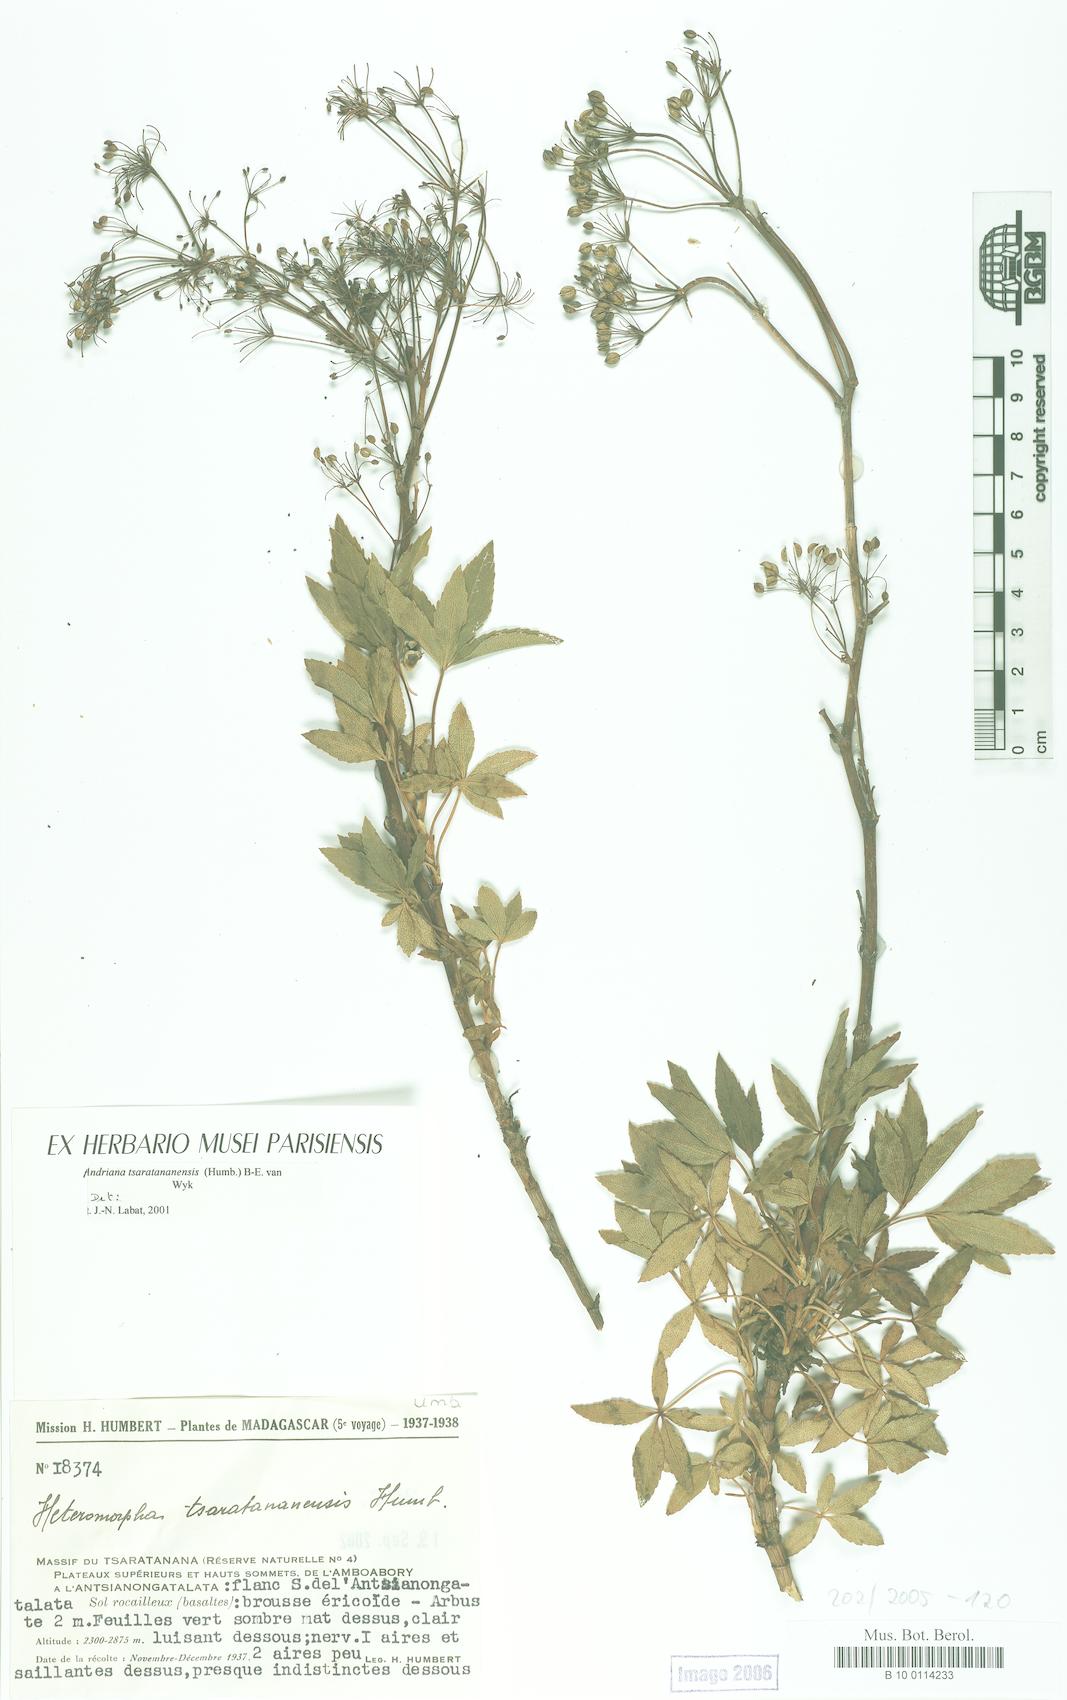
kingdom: Plantae
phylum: Tracheophyta
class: Magnoliopsida
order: Apiales
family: Apiaceae
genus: Andriana
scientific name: Andriana tsaratananensis
